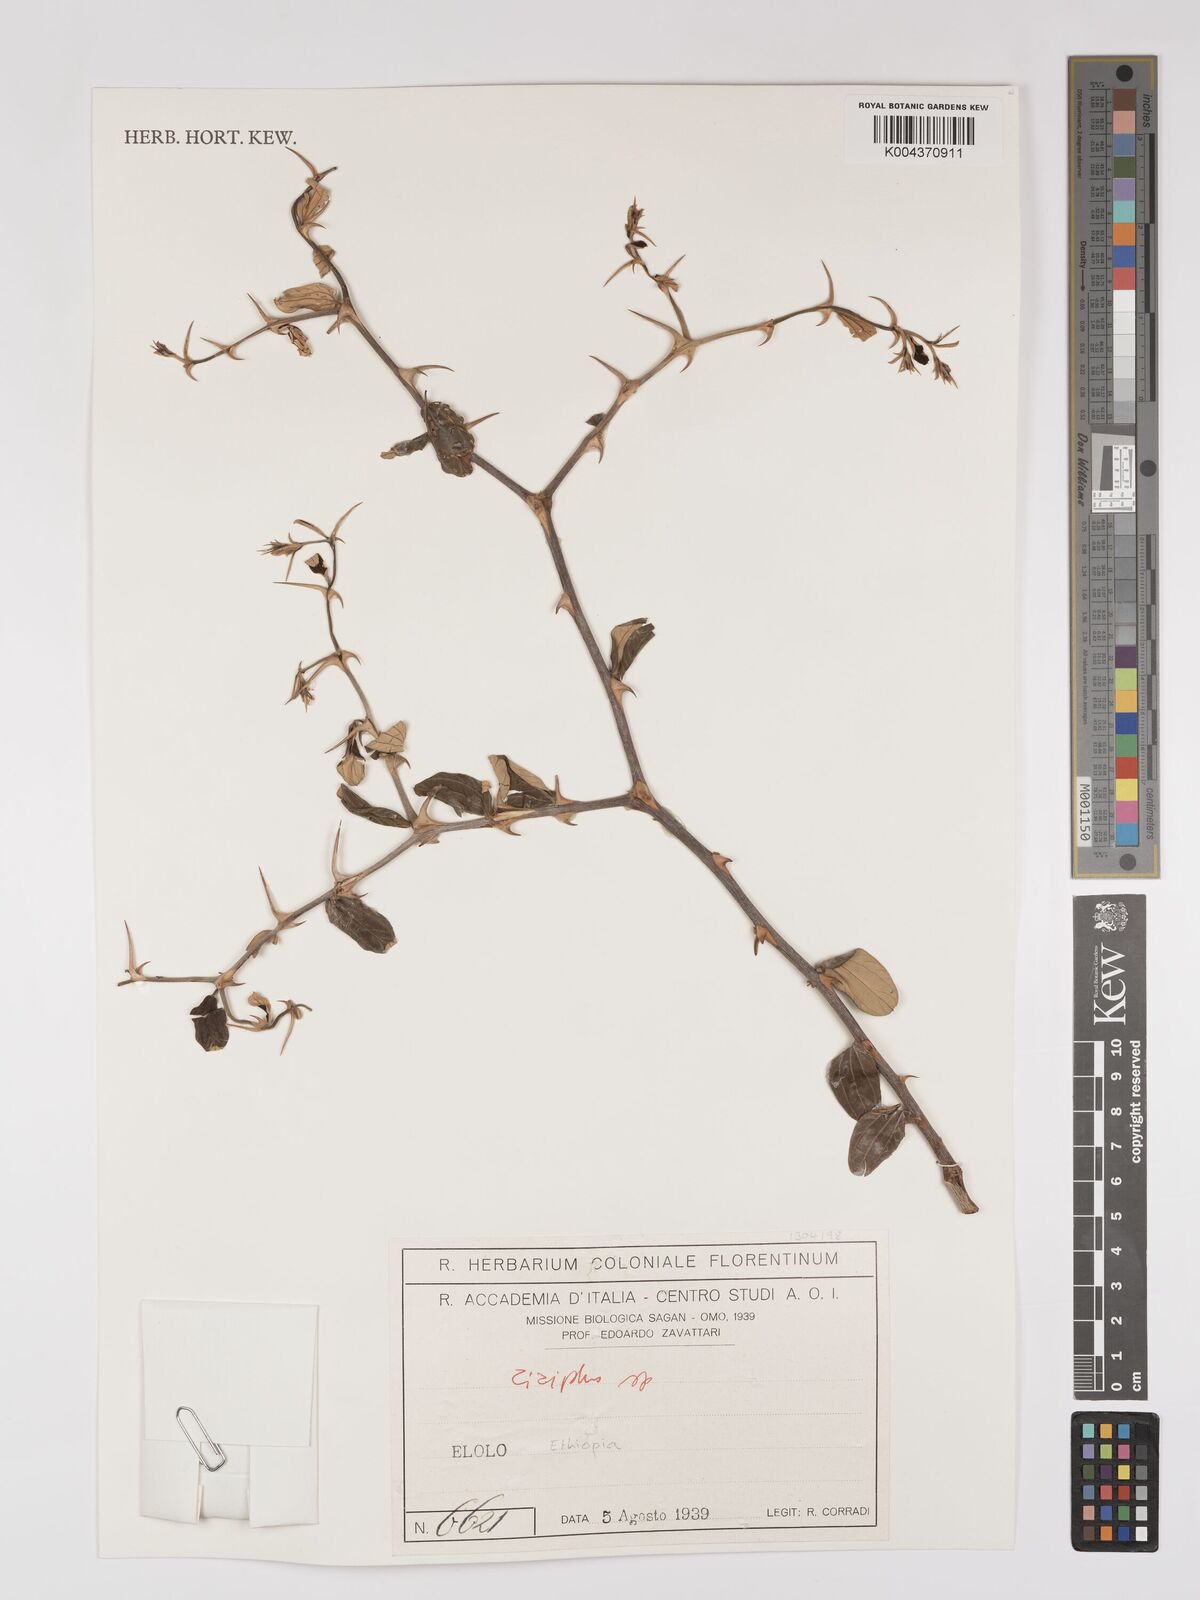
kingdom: Plantae
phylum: Tracheophyta
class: Magnoliopsida
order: Rosales
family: Rhamnaceae
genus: Ziziphus
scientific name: Ziziphus
